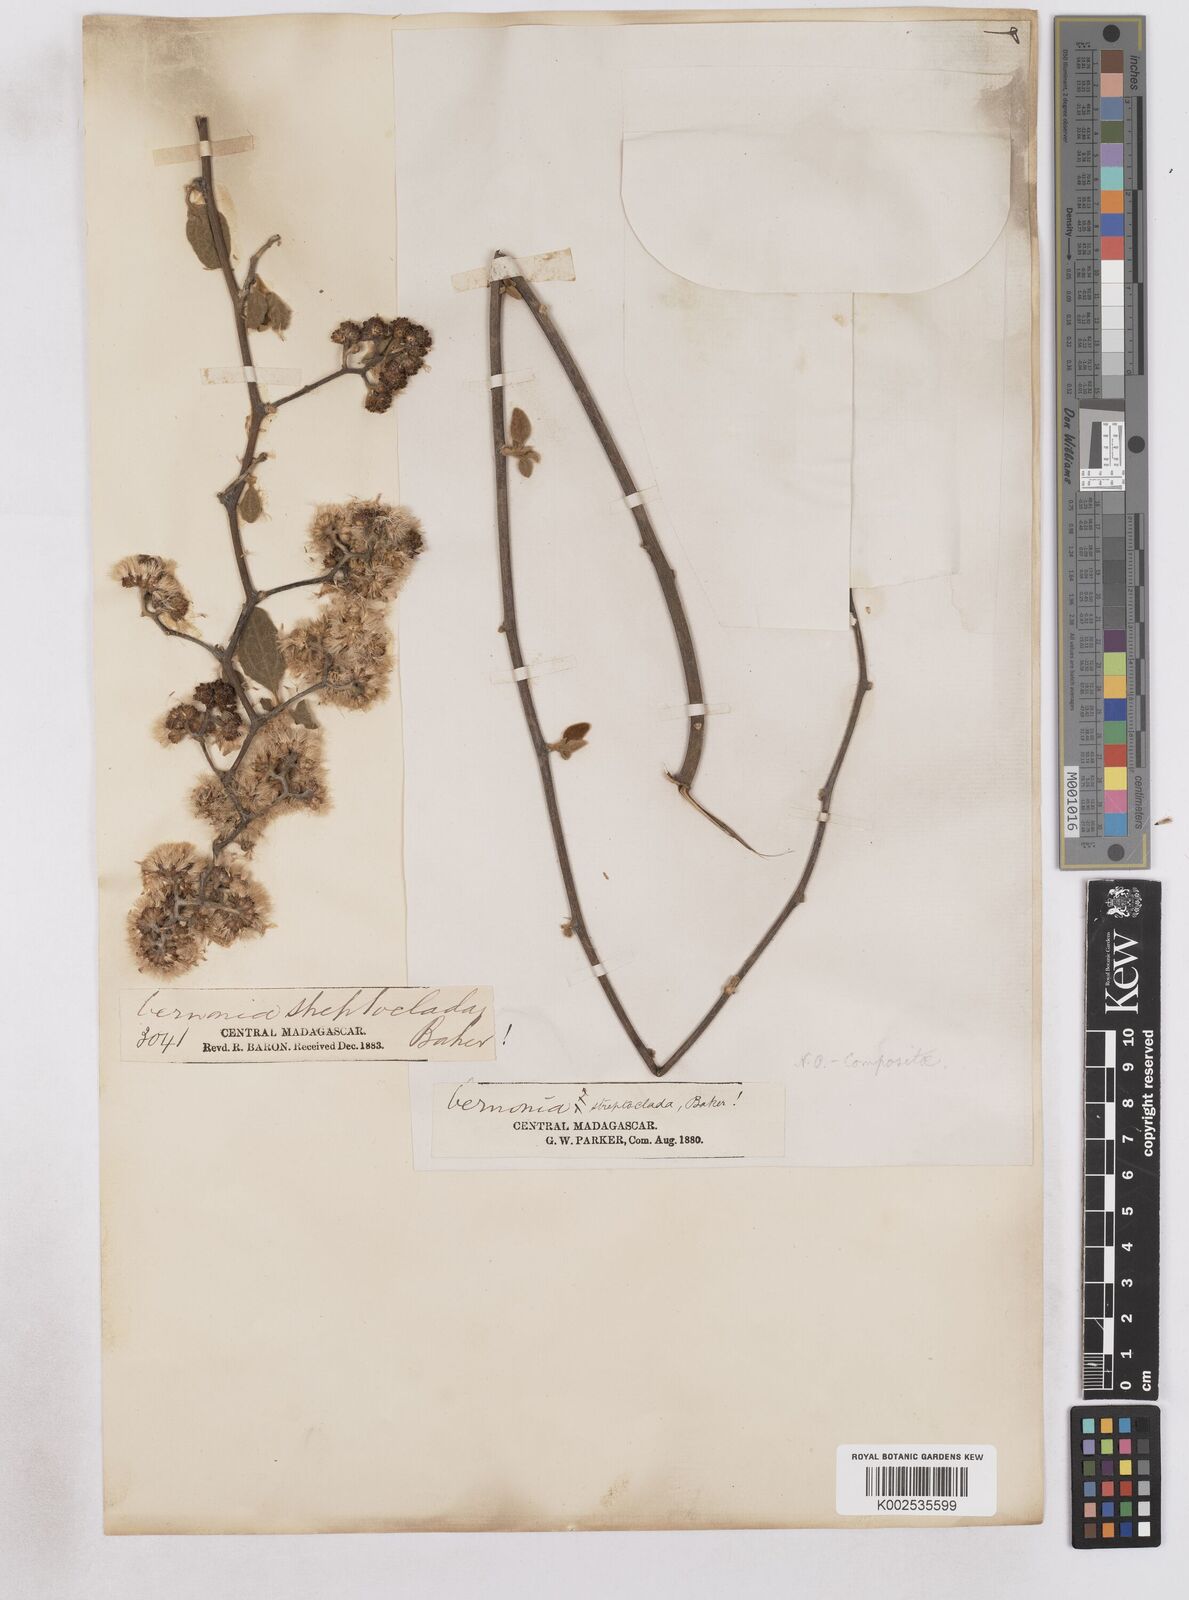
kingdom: Plantae
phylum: Tracheophyta
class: Magnoliopsida
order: Asterales
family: Asteraceae
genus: Distephanus
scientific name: Distephanus streptocladus
